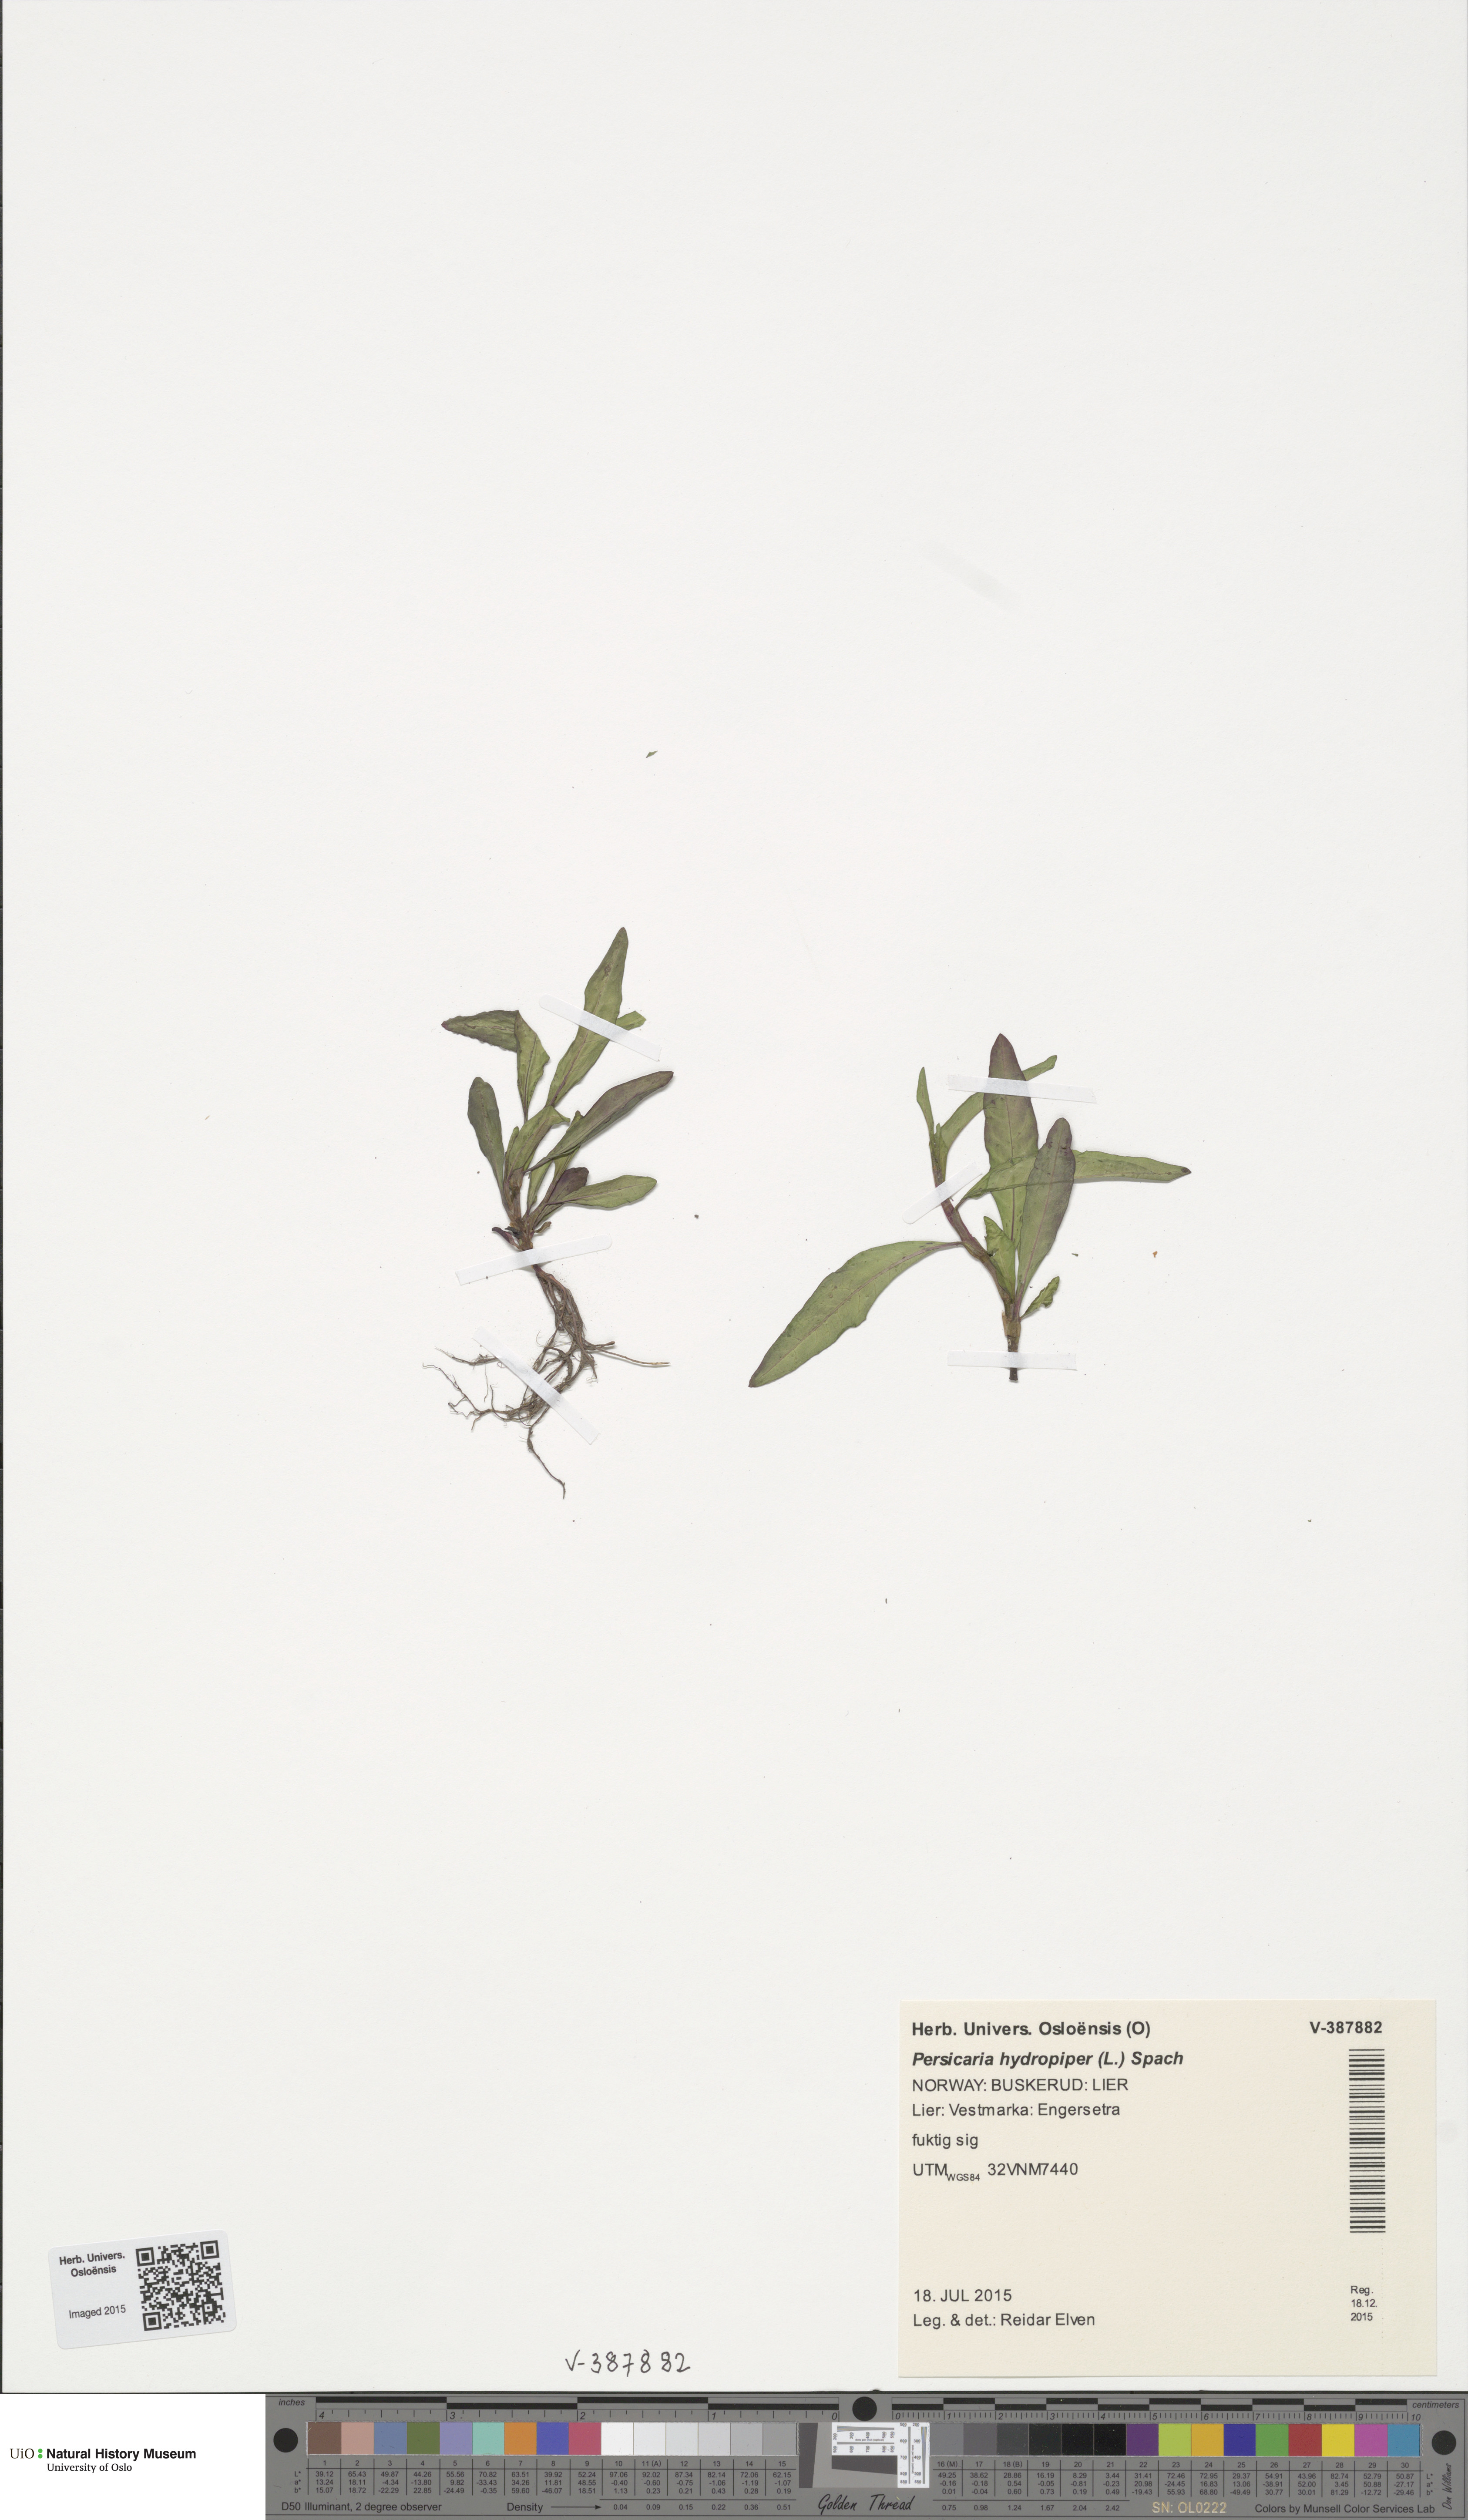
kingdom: Plantae
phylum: Tracheophyta
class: Magnoliopsida
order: Caryophyllales
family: Polygonaceae
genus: Persicaria
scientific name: Persicaria hydropiper
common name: Water-pepper
